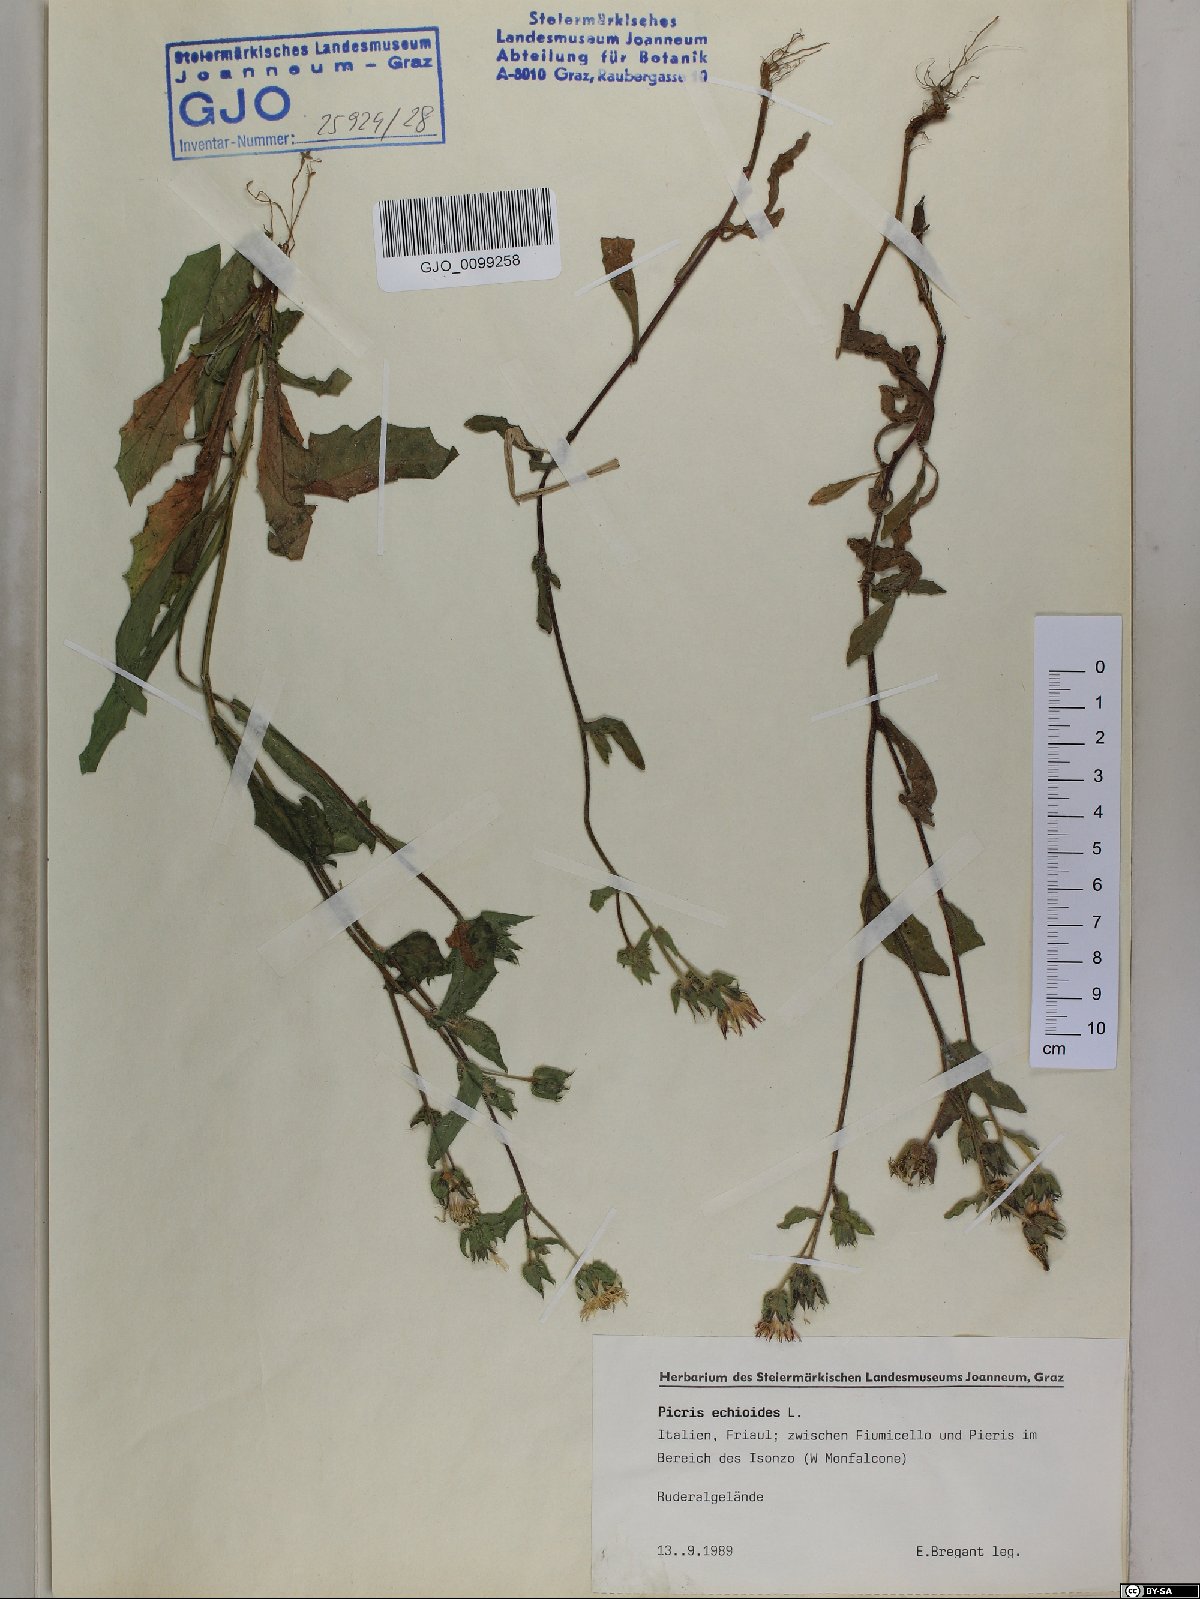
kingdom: Plantae
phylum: Tracheophyta
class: Magnoliopsida
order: Asterales
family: Asteraceae
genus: Helminthotheca
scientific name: Helminthotheca echioides
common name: Ox-tongue
